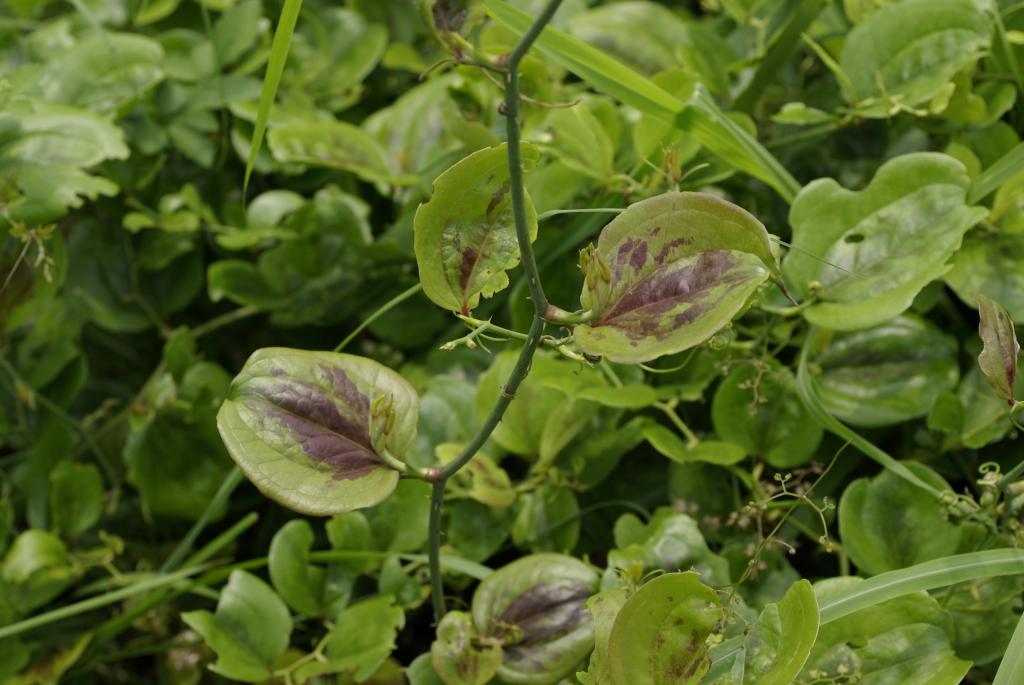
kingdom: Plantae
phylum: Tracheophyta
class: Liliopsida
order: Liliales
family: Smilacaceae
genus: Smilax
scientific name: Smilax china
